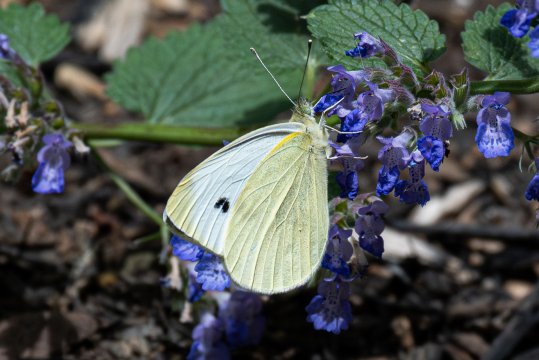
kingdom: Animalia
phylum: Arthropoda
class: Insecta
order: Lepidoptera
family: Pieridae
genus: Pieris
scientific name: Pieris rapae
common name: Cabbage White
